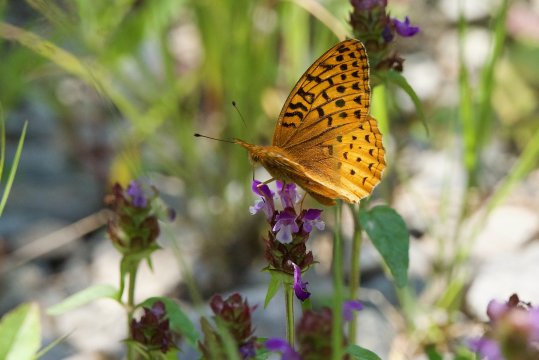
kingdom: Animalia
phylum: Arthropoda
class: Insecta
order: Lepidoptera
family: Nymphalidae
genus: Speyeria
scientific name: Speyeria cybele
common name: Great Spangled Fritillary
